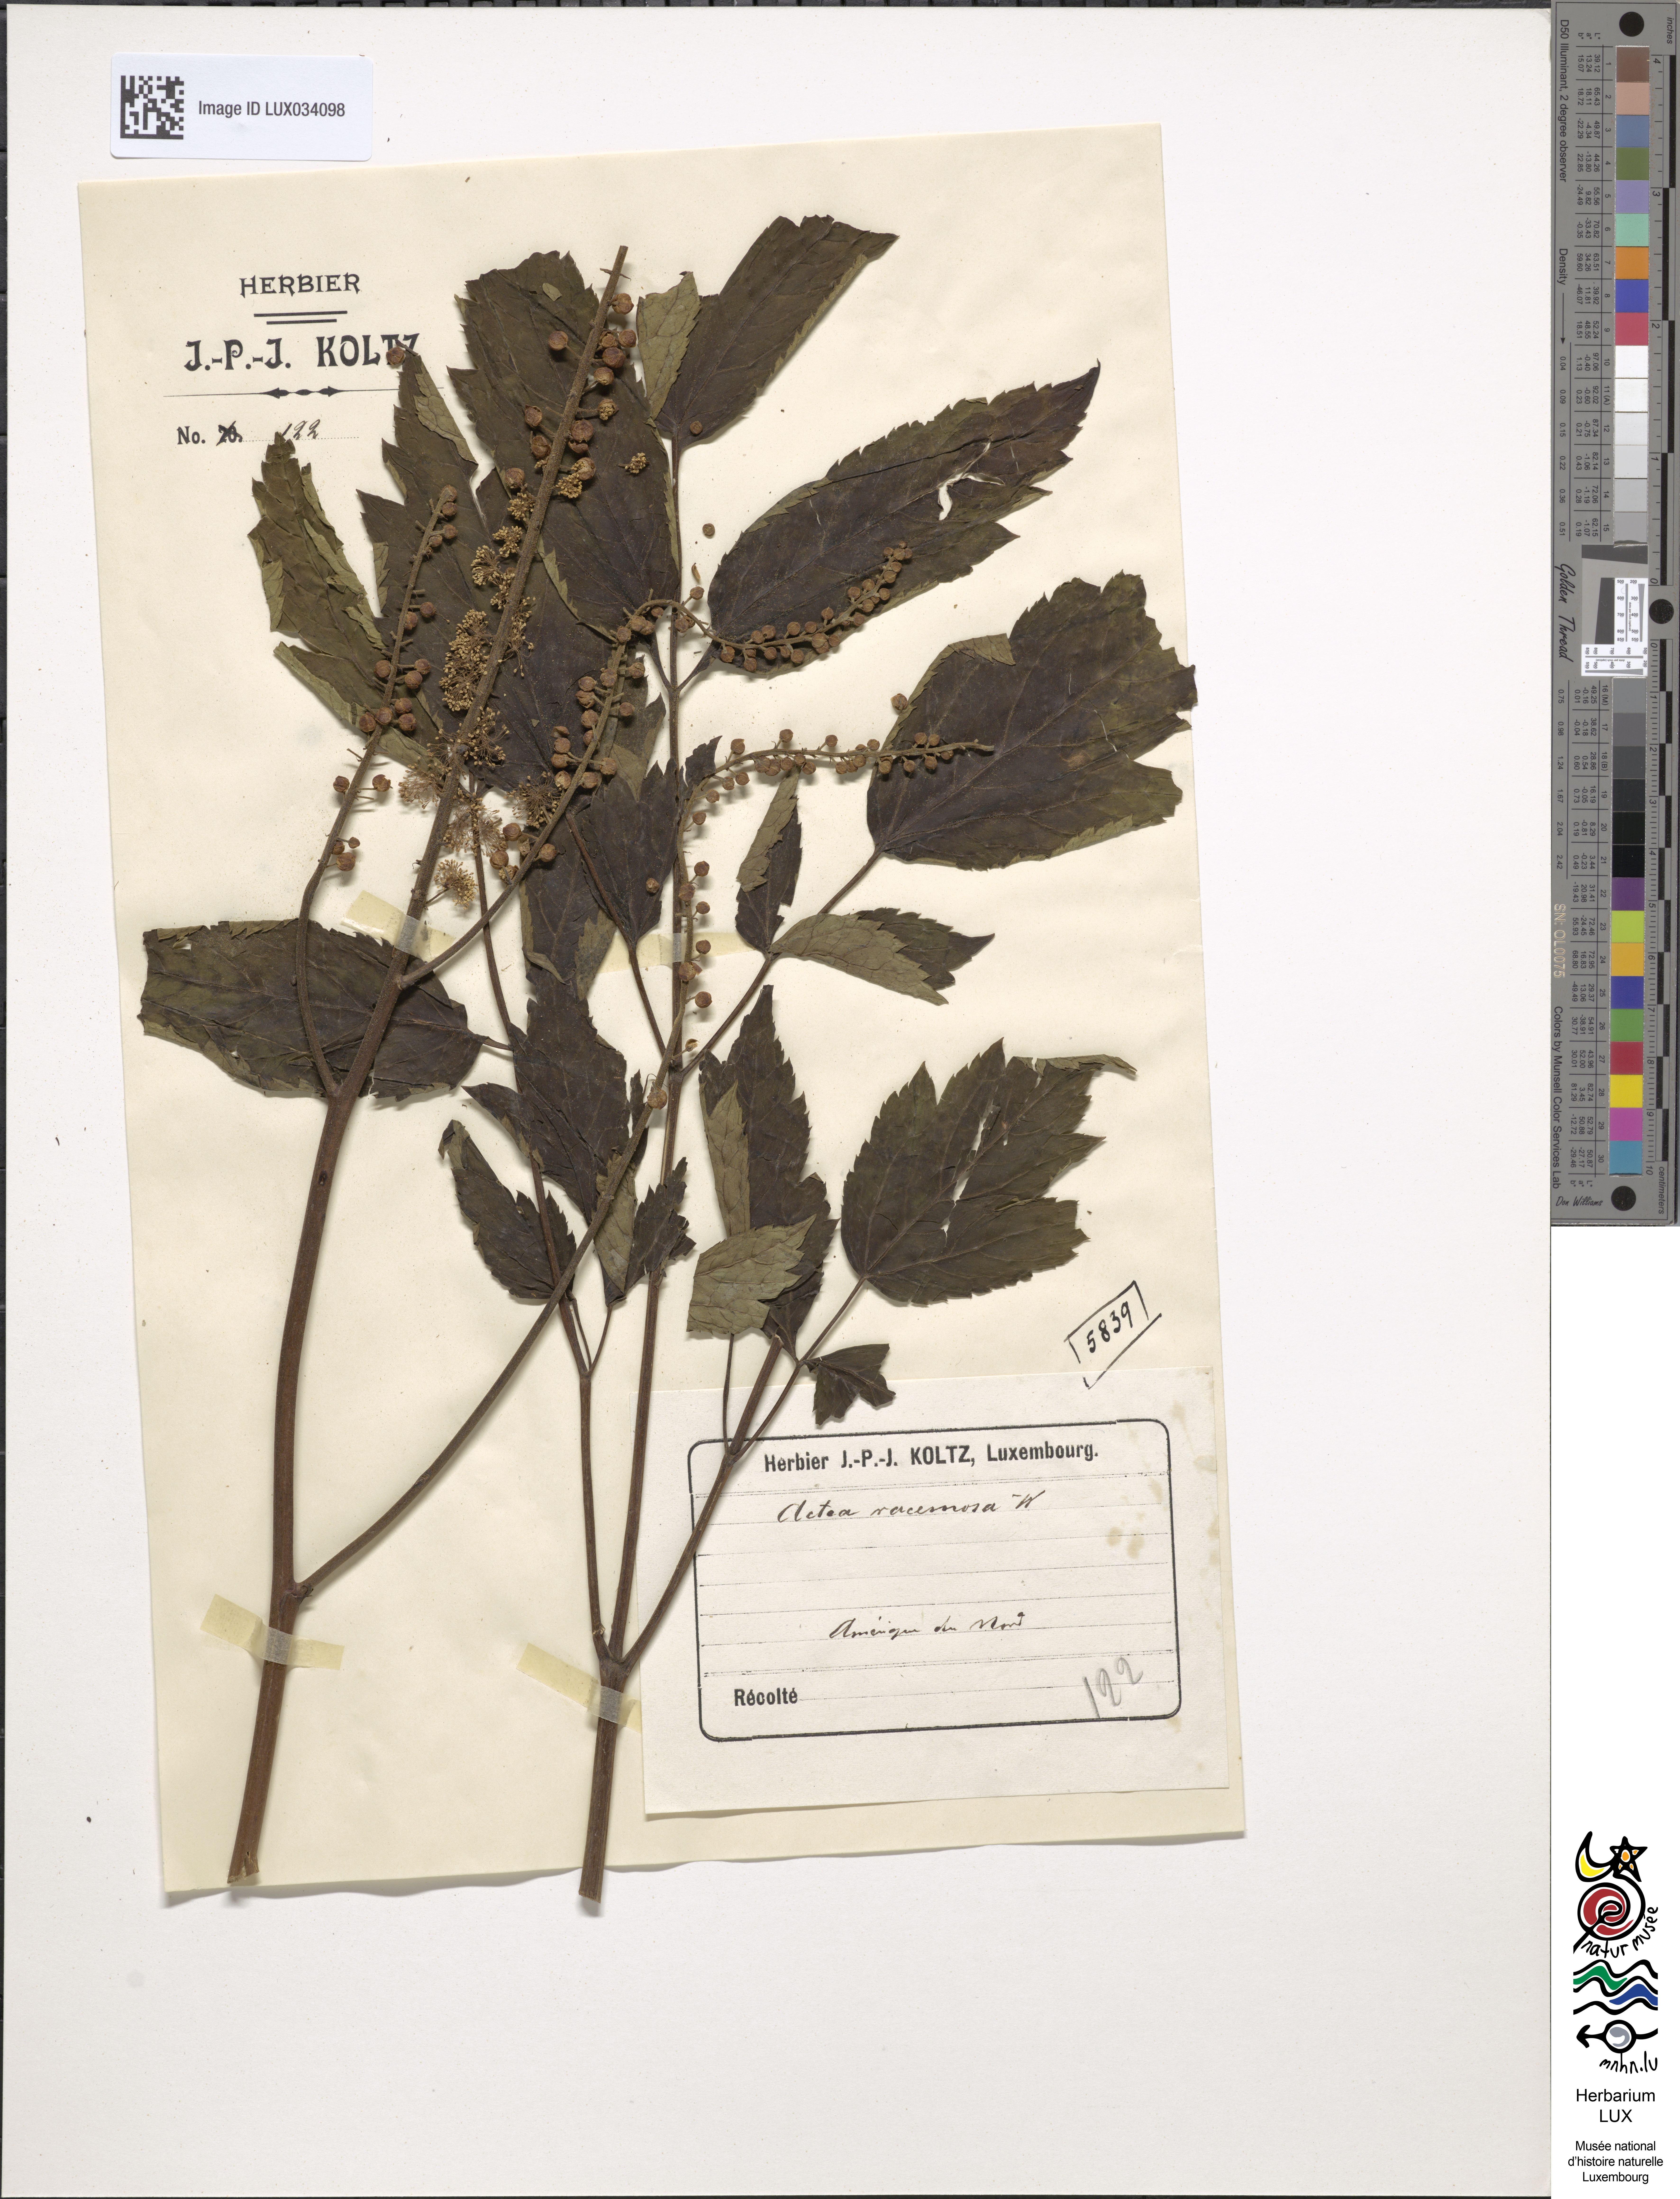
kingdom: Plantae
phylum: Tracheophyta
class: Magnoliopsida
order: Ranunculales
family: Ranunculaceae
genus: Actaea
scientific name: Actaea racemosa
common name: Black cohosh
